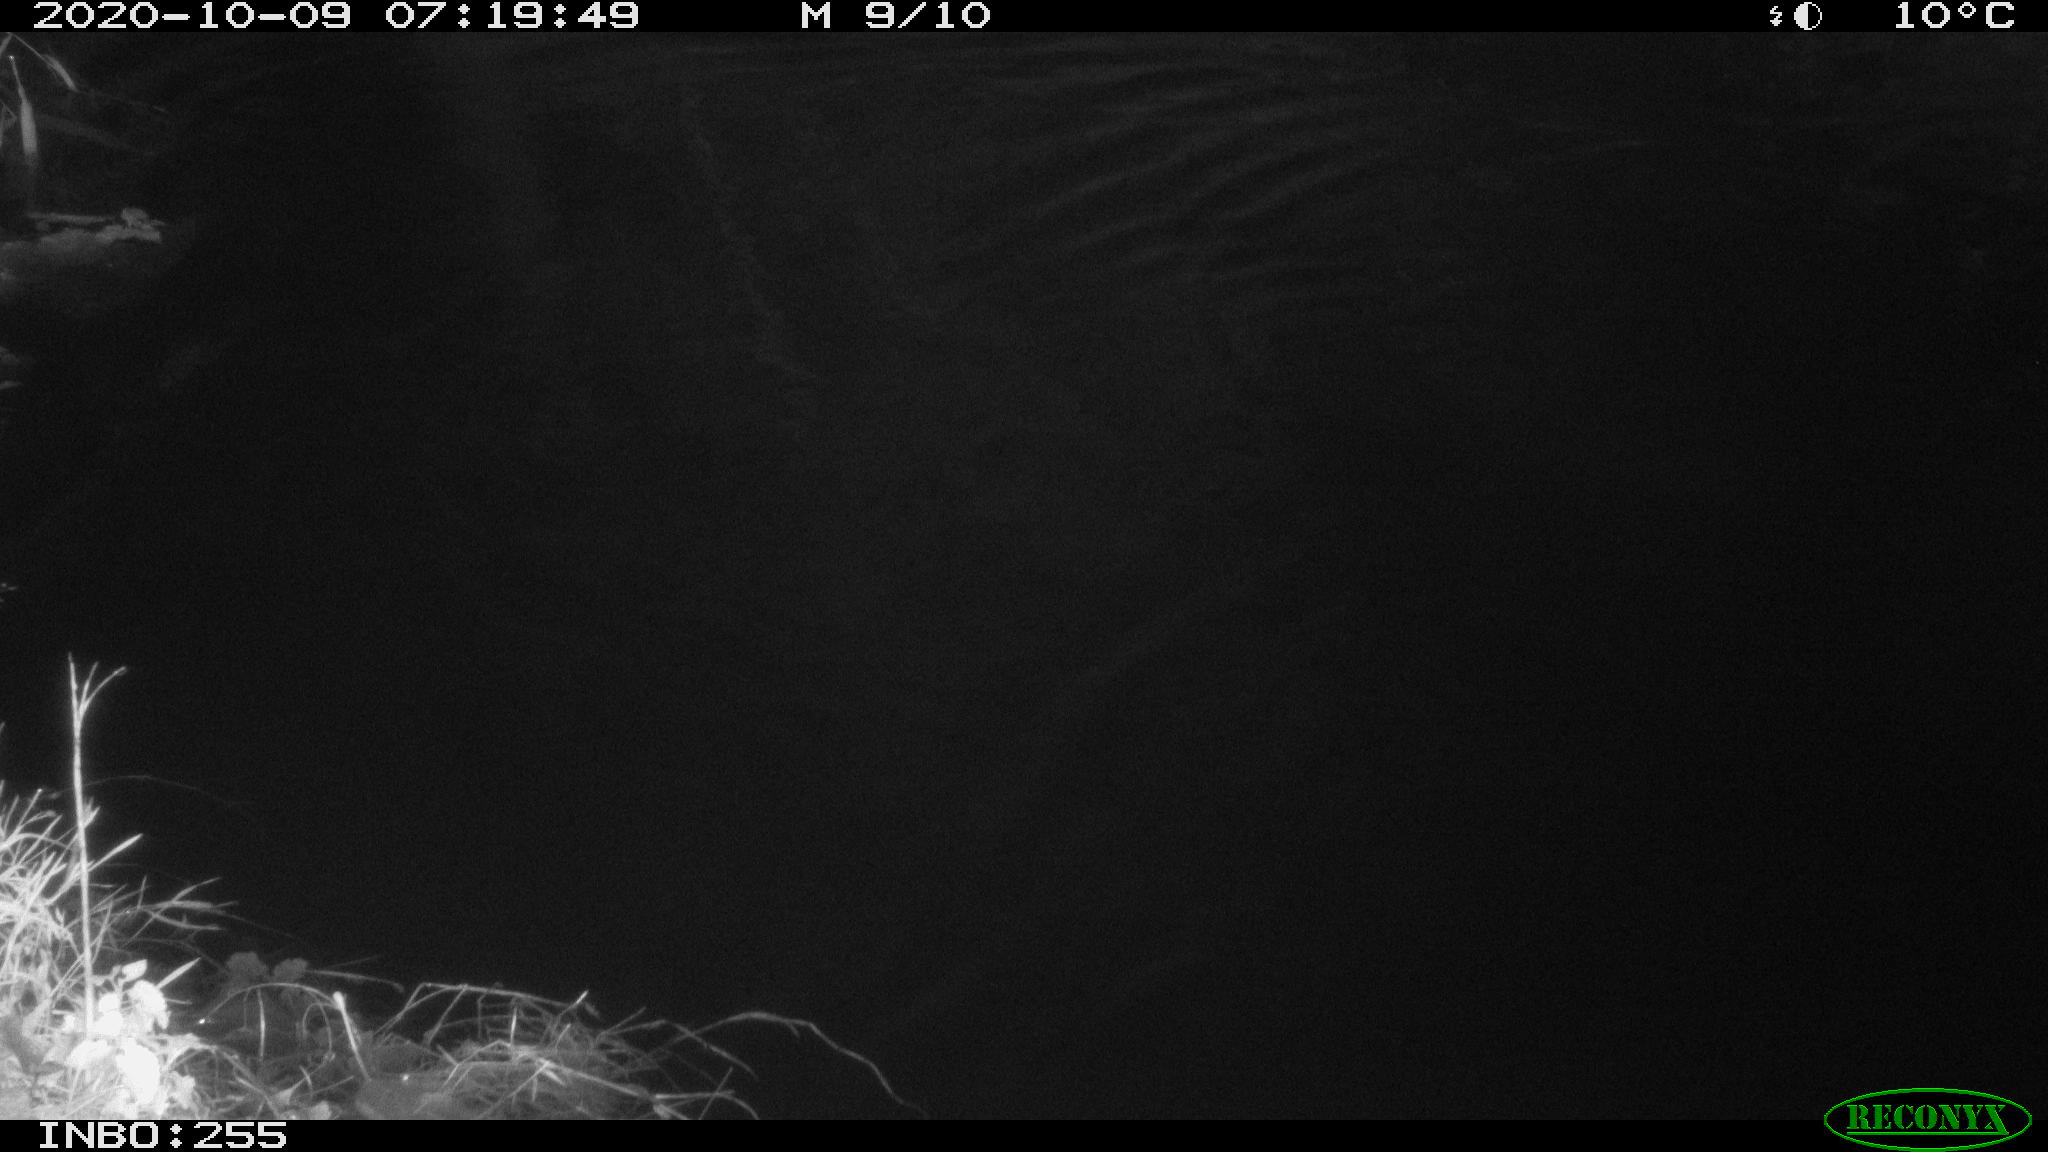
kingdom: Animalia
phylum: Chordata
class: Mammalia
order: Rodentia
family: Muridae
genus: Rattus
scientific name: Rattus norvegicus
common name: Brown rat
